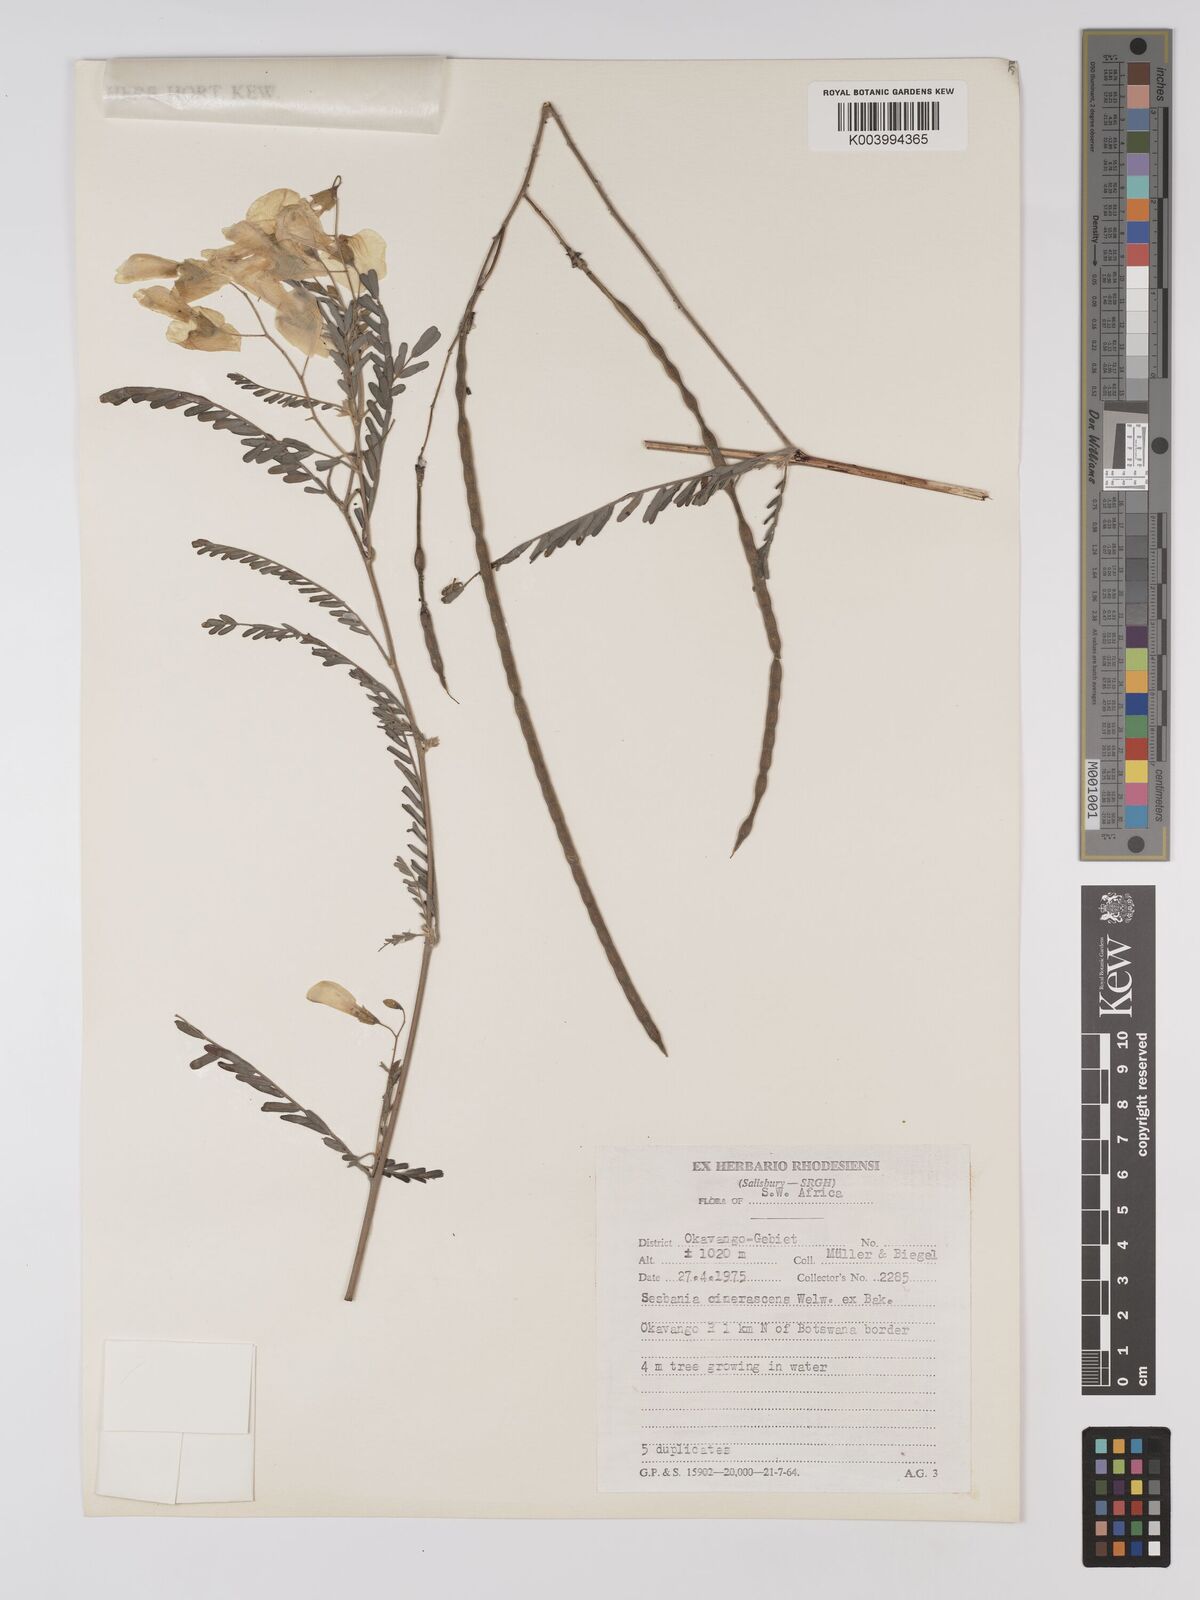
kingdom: Plantae
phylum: Tracheophyta
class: Magnoliopsida
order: Fabales
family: Fabaceae
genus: Sesbania
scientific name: Sesbania cinerascens
